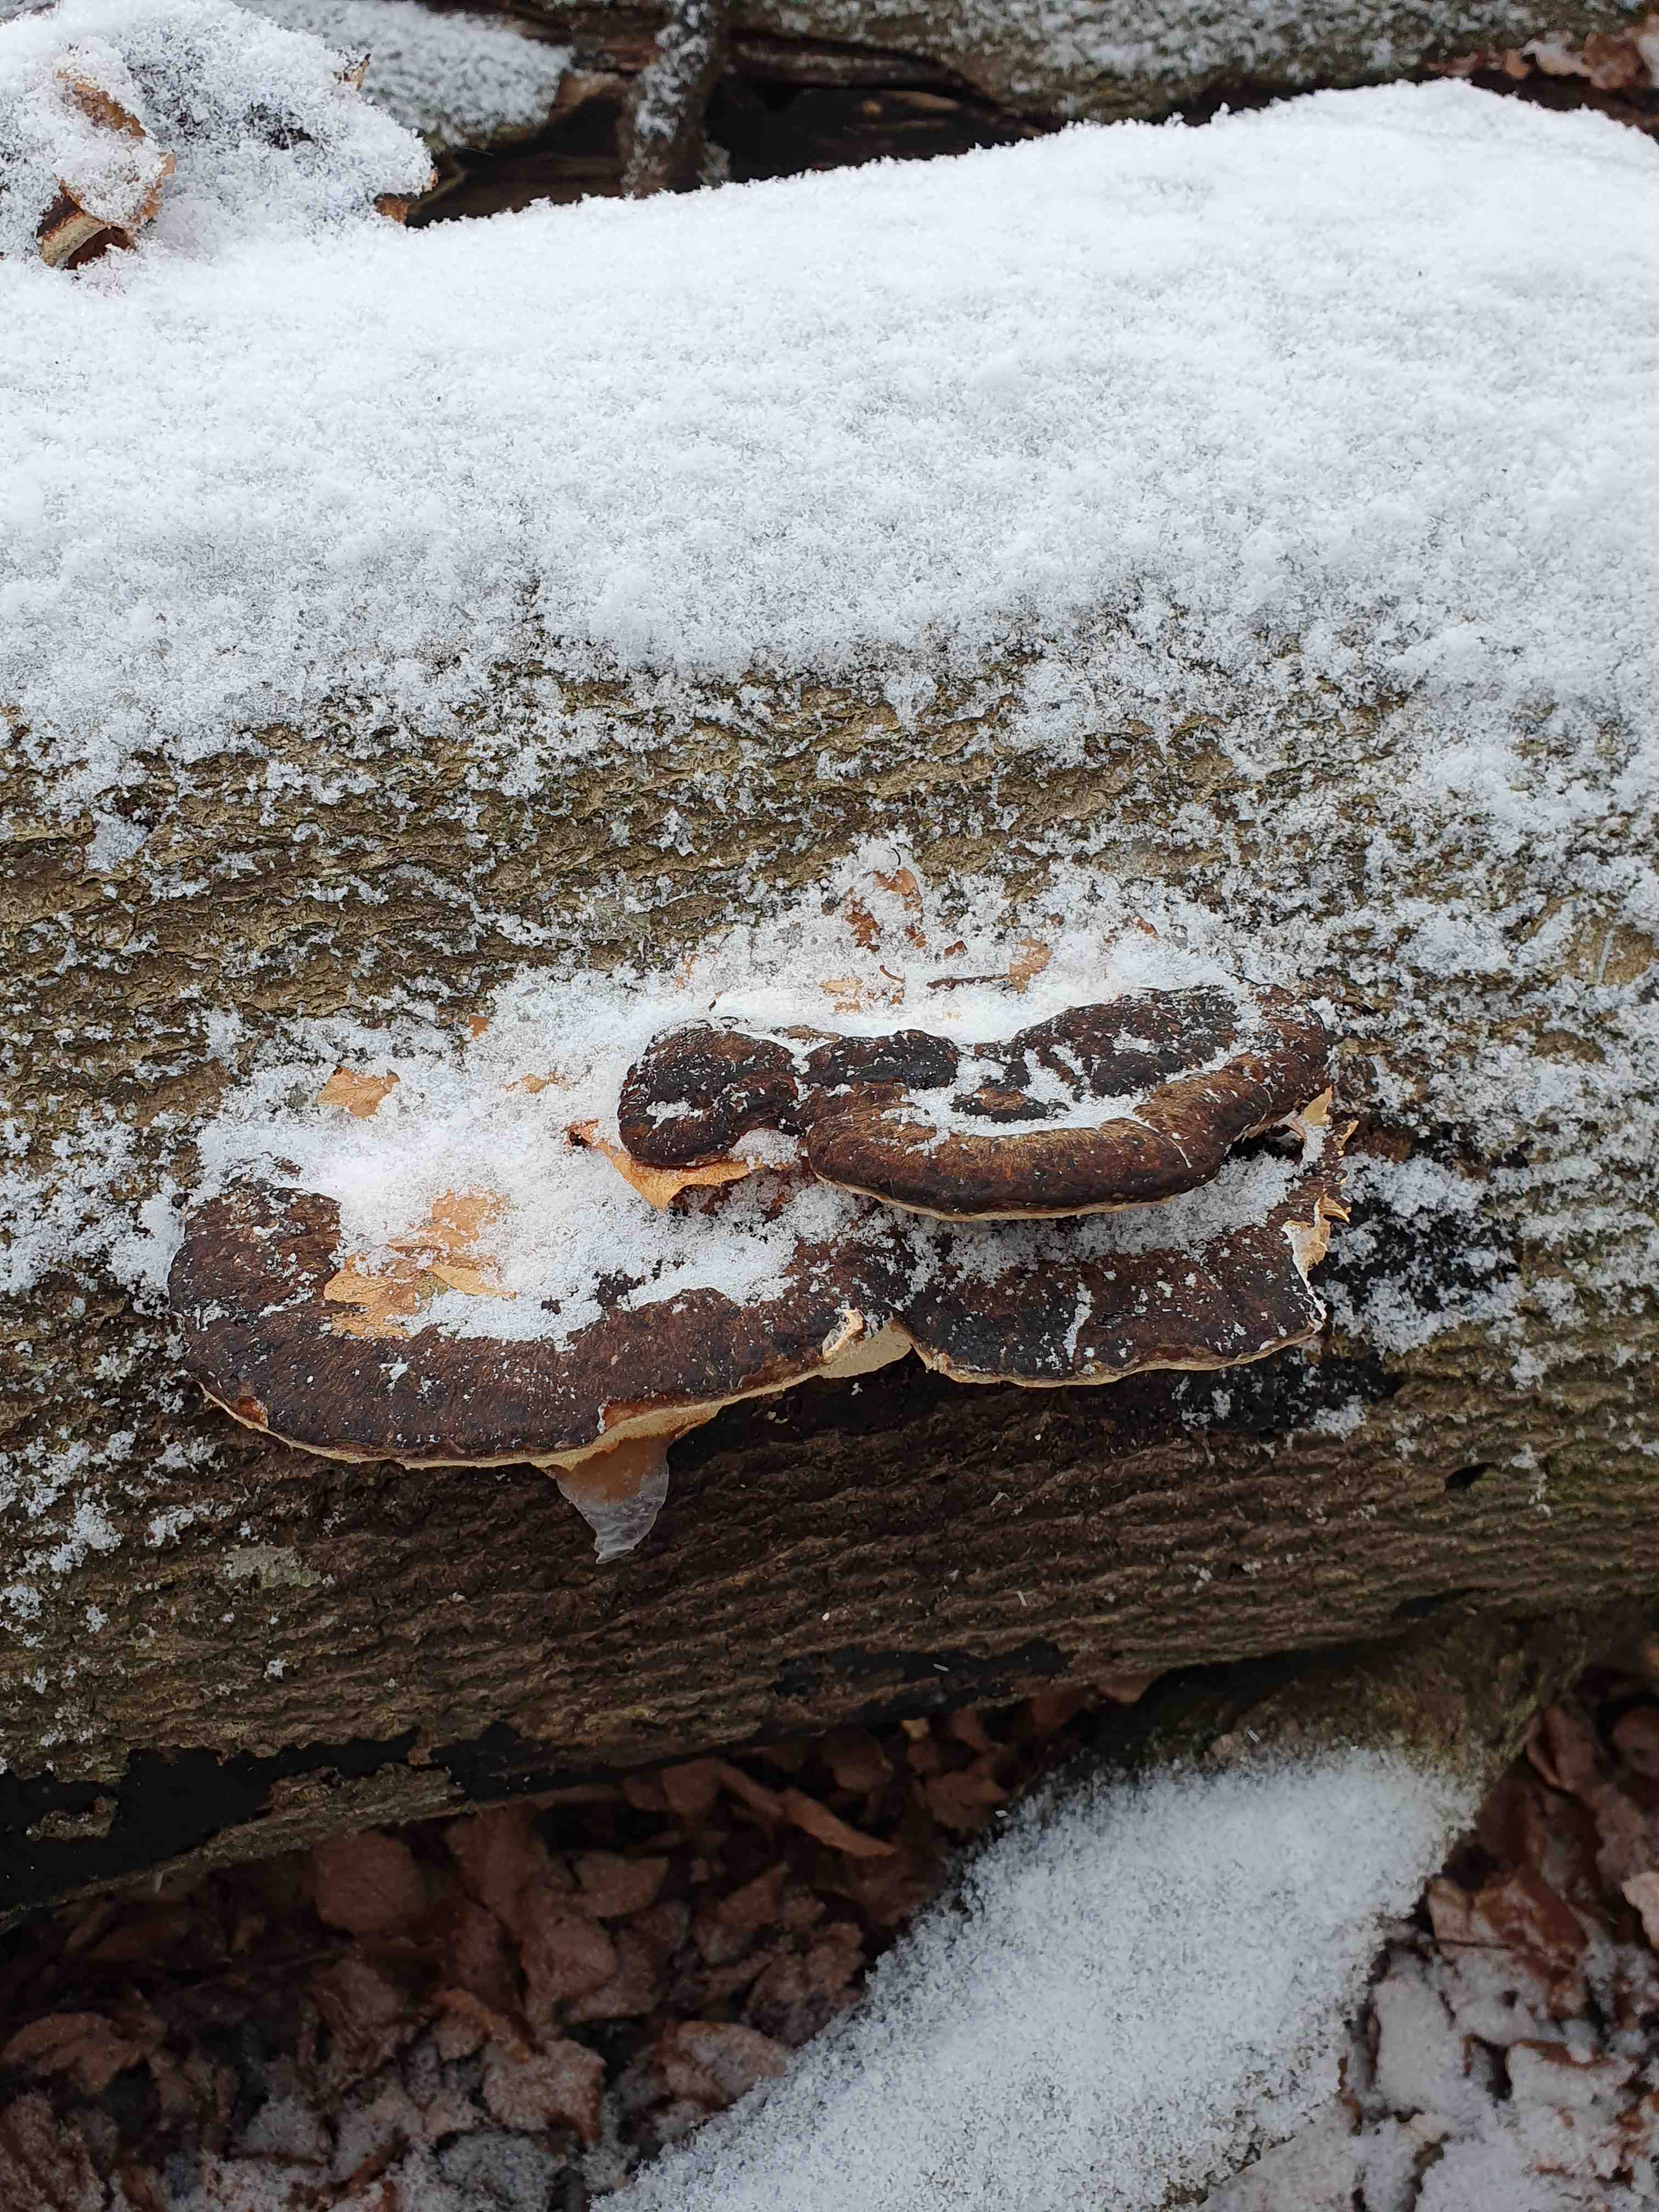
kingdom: Fungi
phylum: Basidiomycota
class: Agaricomycetes
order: Polyporales
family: Ischnodermataceae
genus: Ischnoderma
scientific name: Ischnoderma resinosum
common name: løv-tjæreporesvamp
